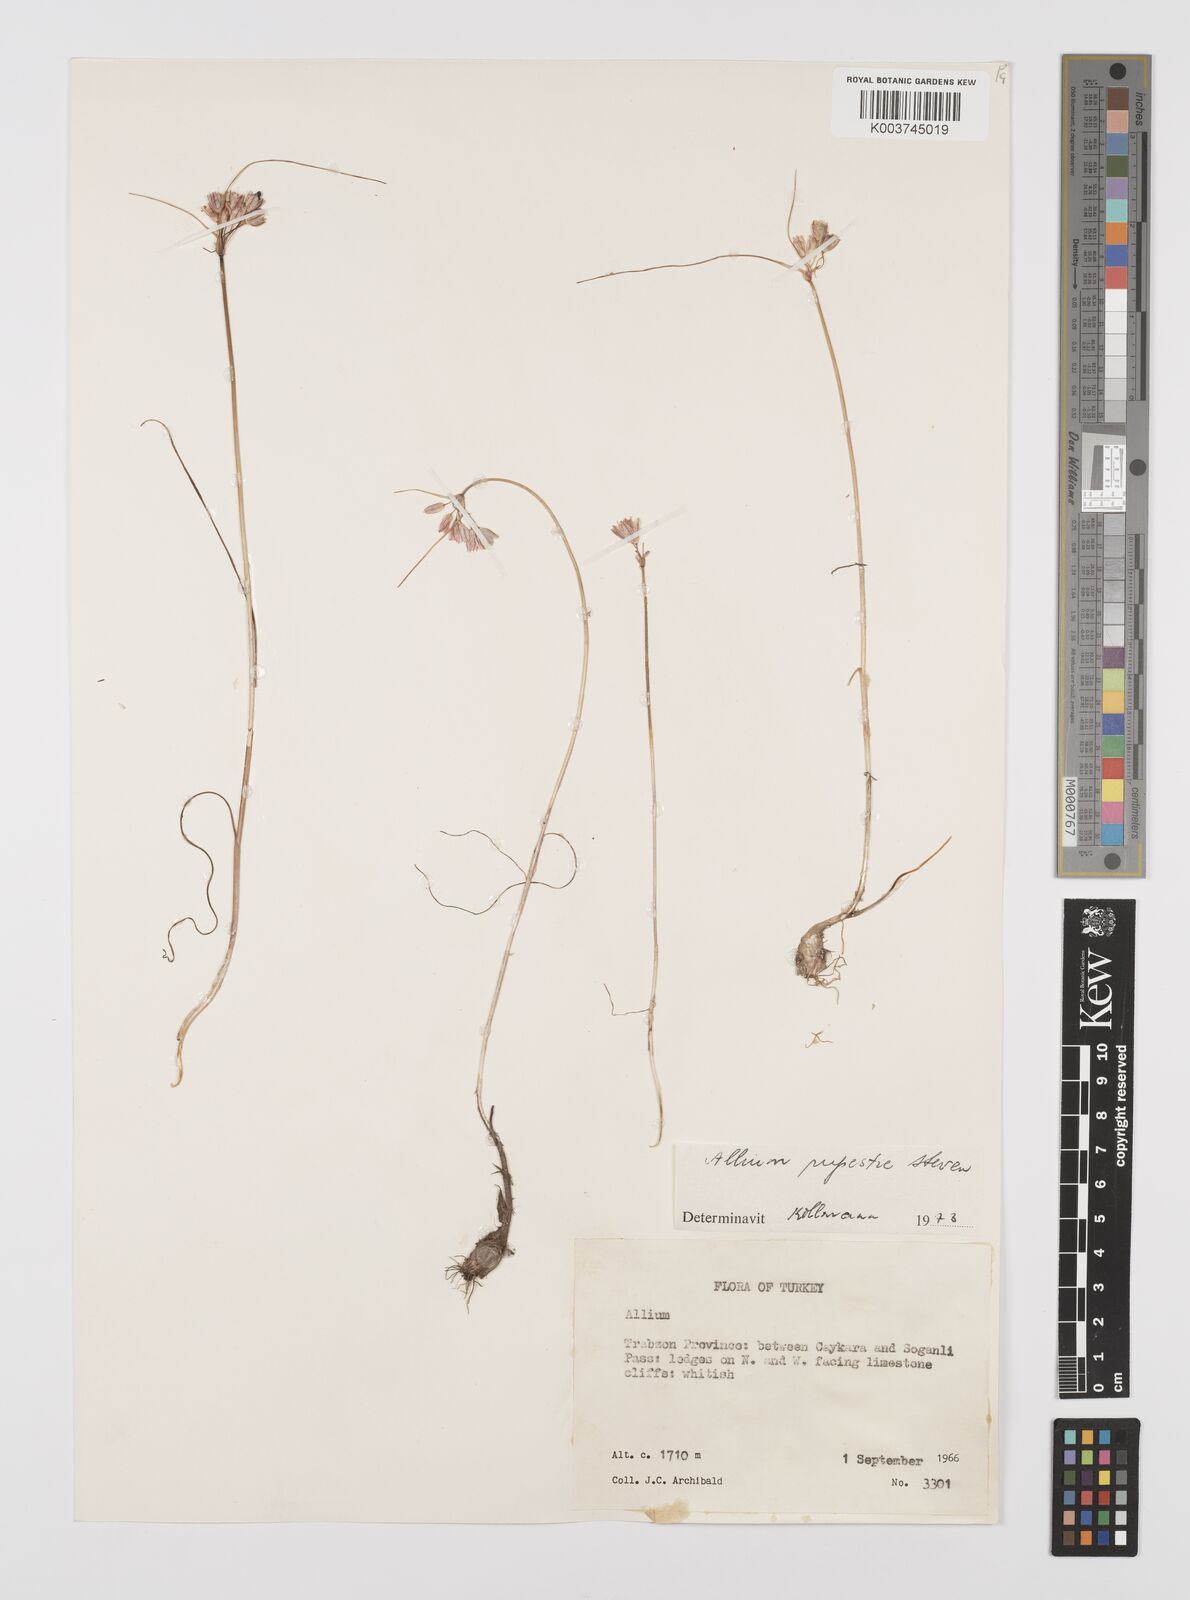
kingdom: Plantae
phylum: Tracheophyta
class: Liliopsida
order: Asparagales
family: Amaryllidaceae
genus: Allium
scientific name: Allium rupestre
